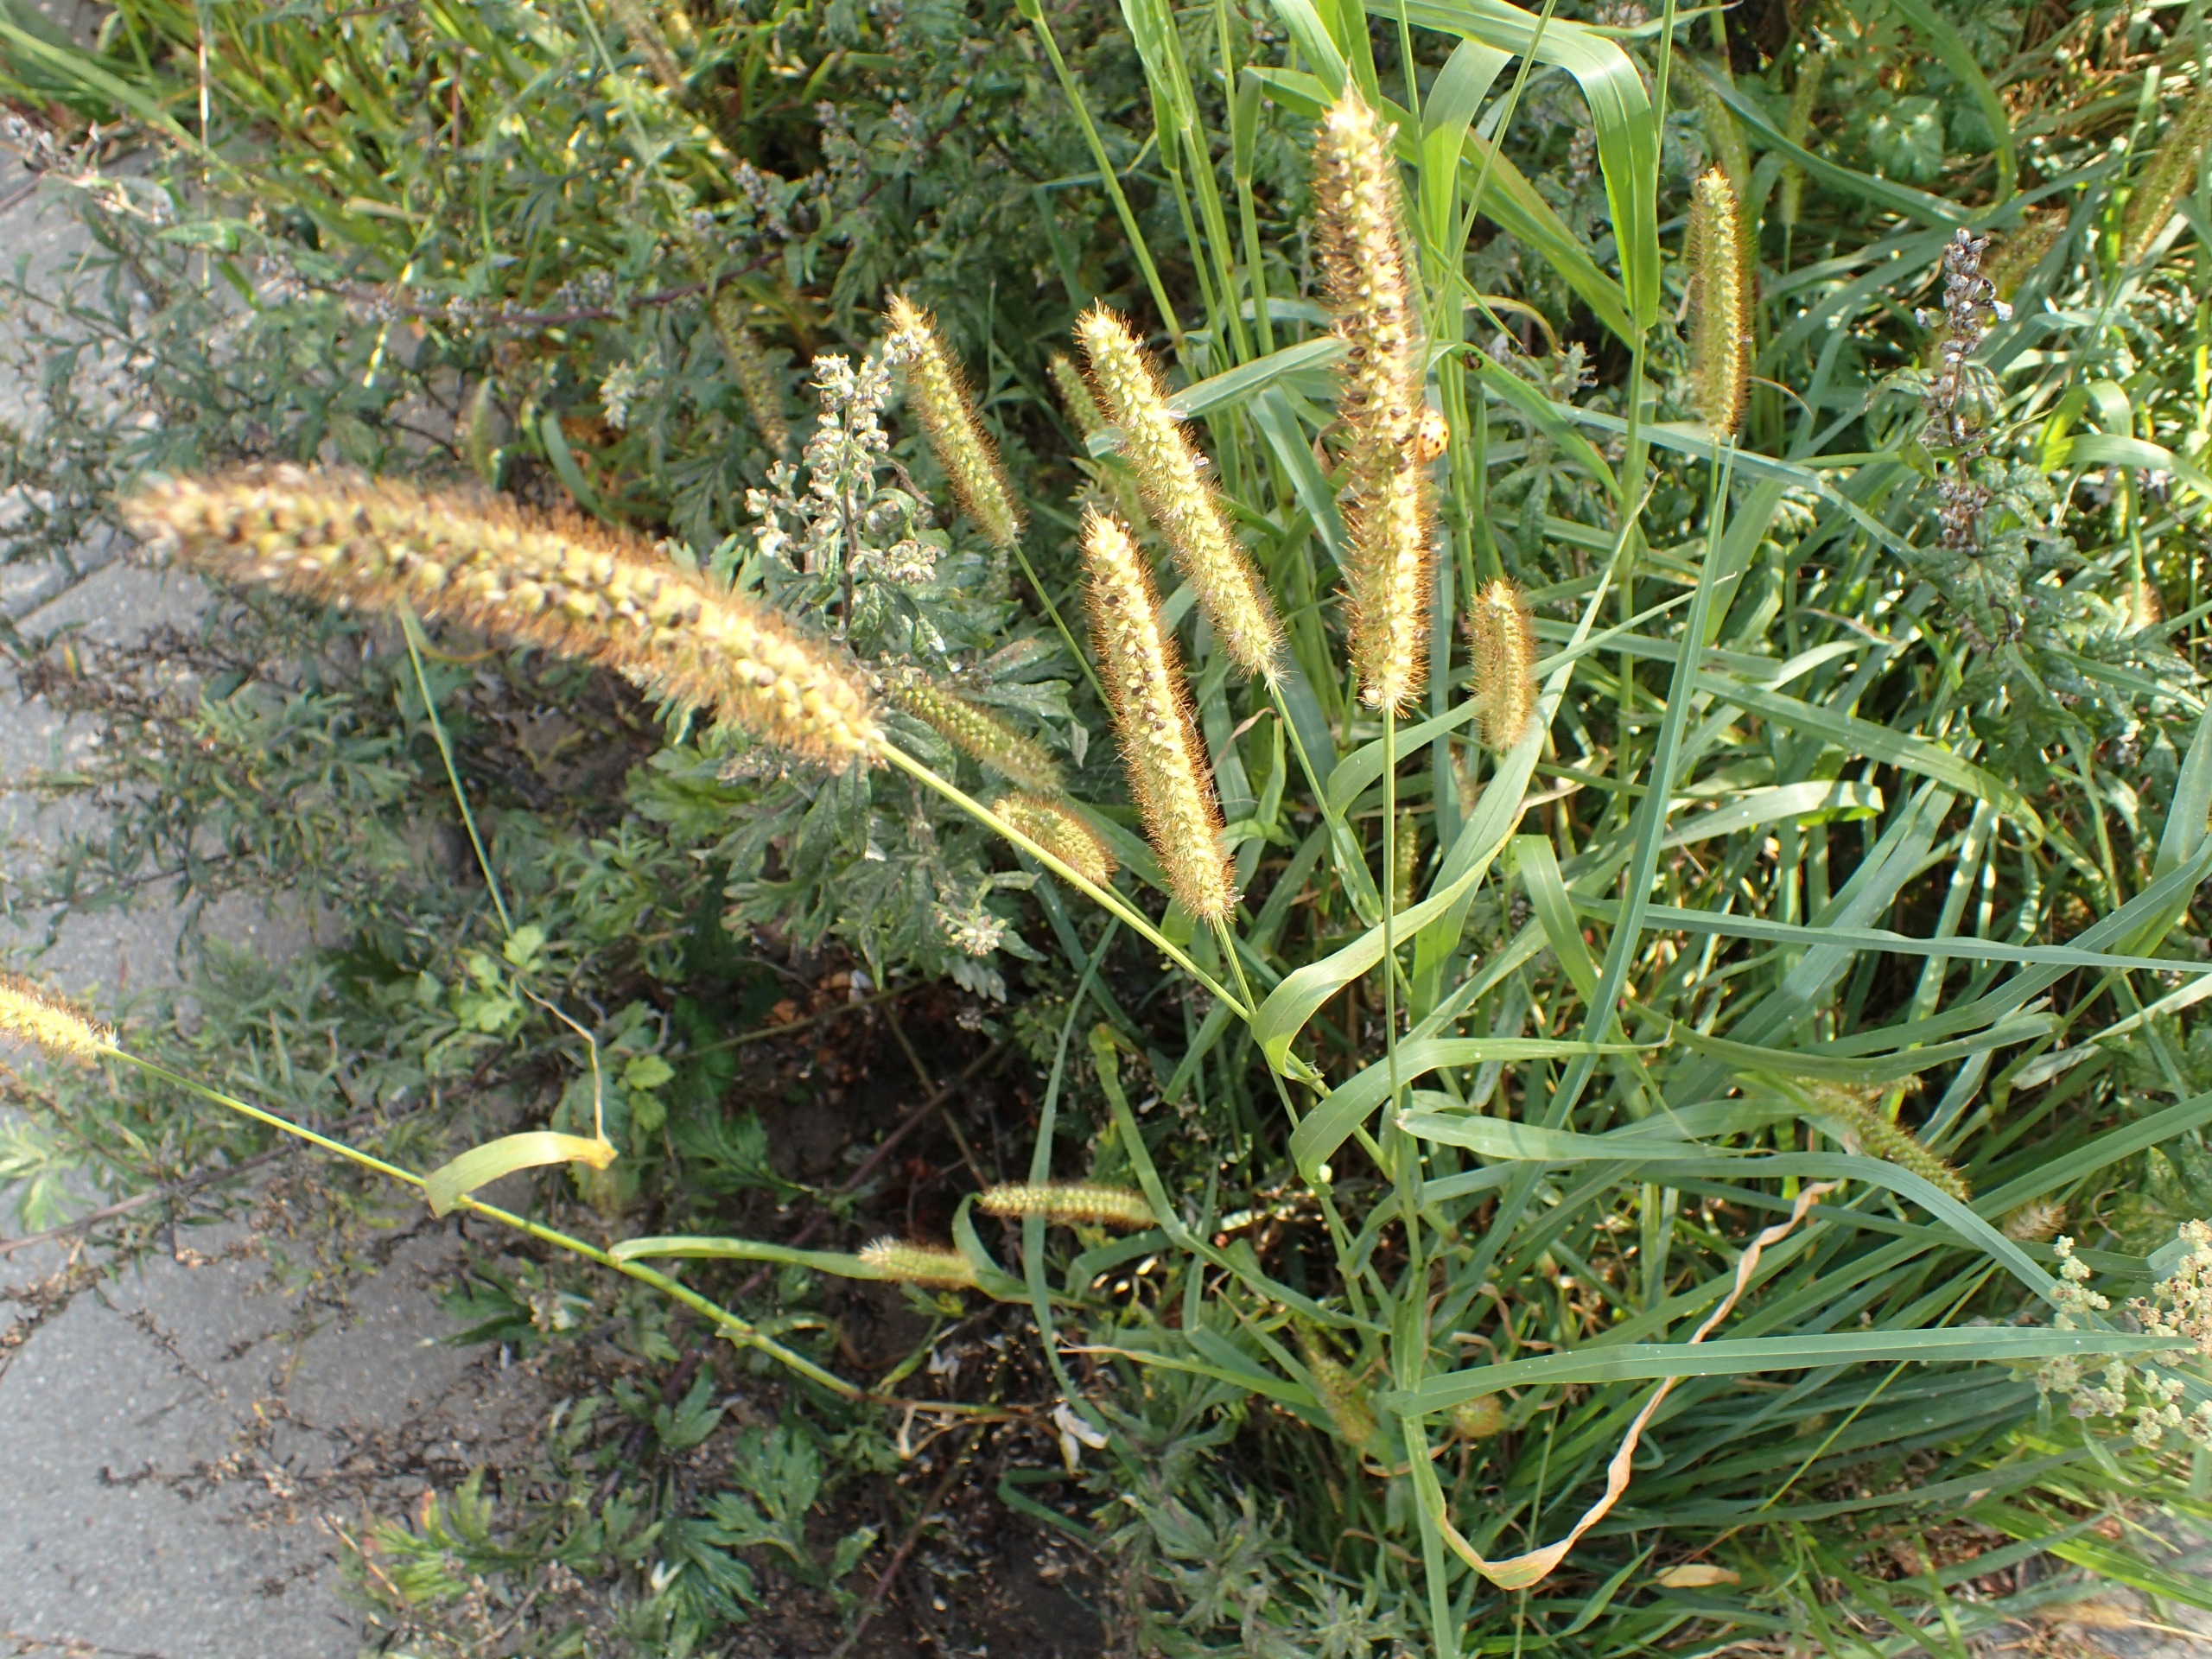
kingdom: Plantae
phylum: Tracheophyta
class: Liliopsida
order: Poales
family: Poaceae
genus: Setaria
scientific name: Setaria pumila
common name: Blågrøn skærmaks
